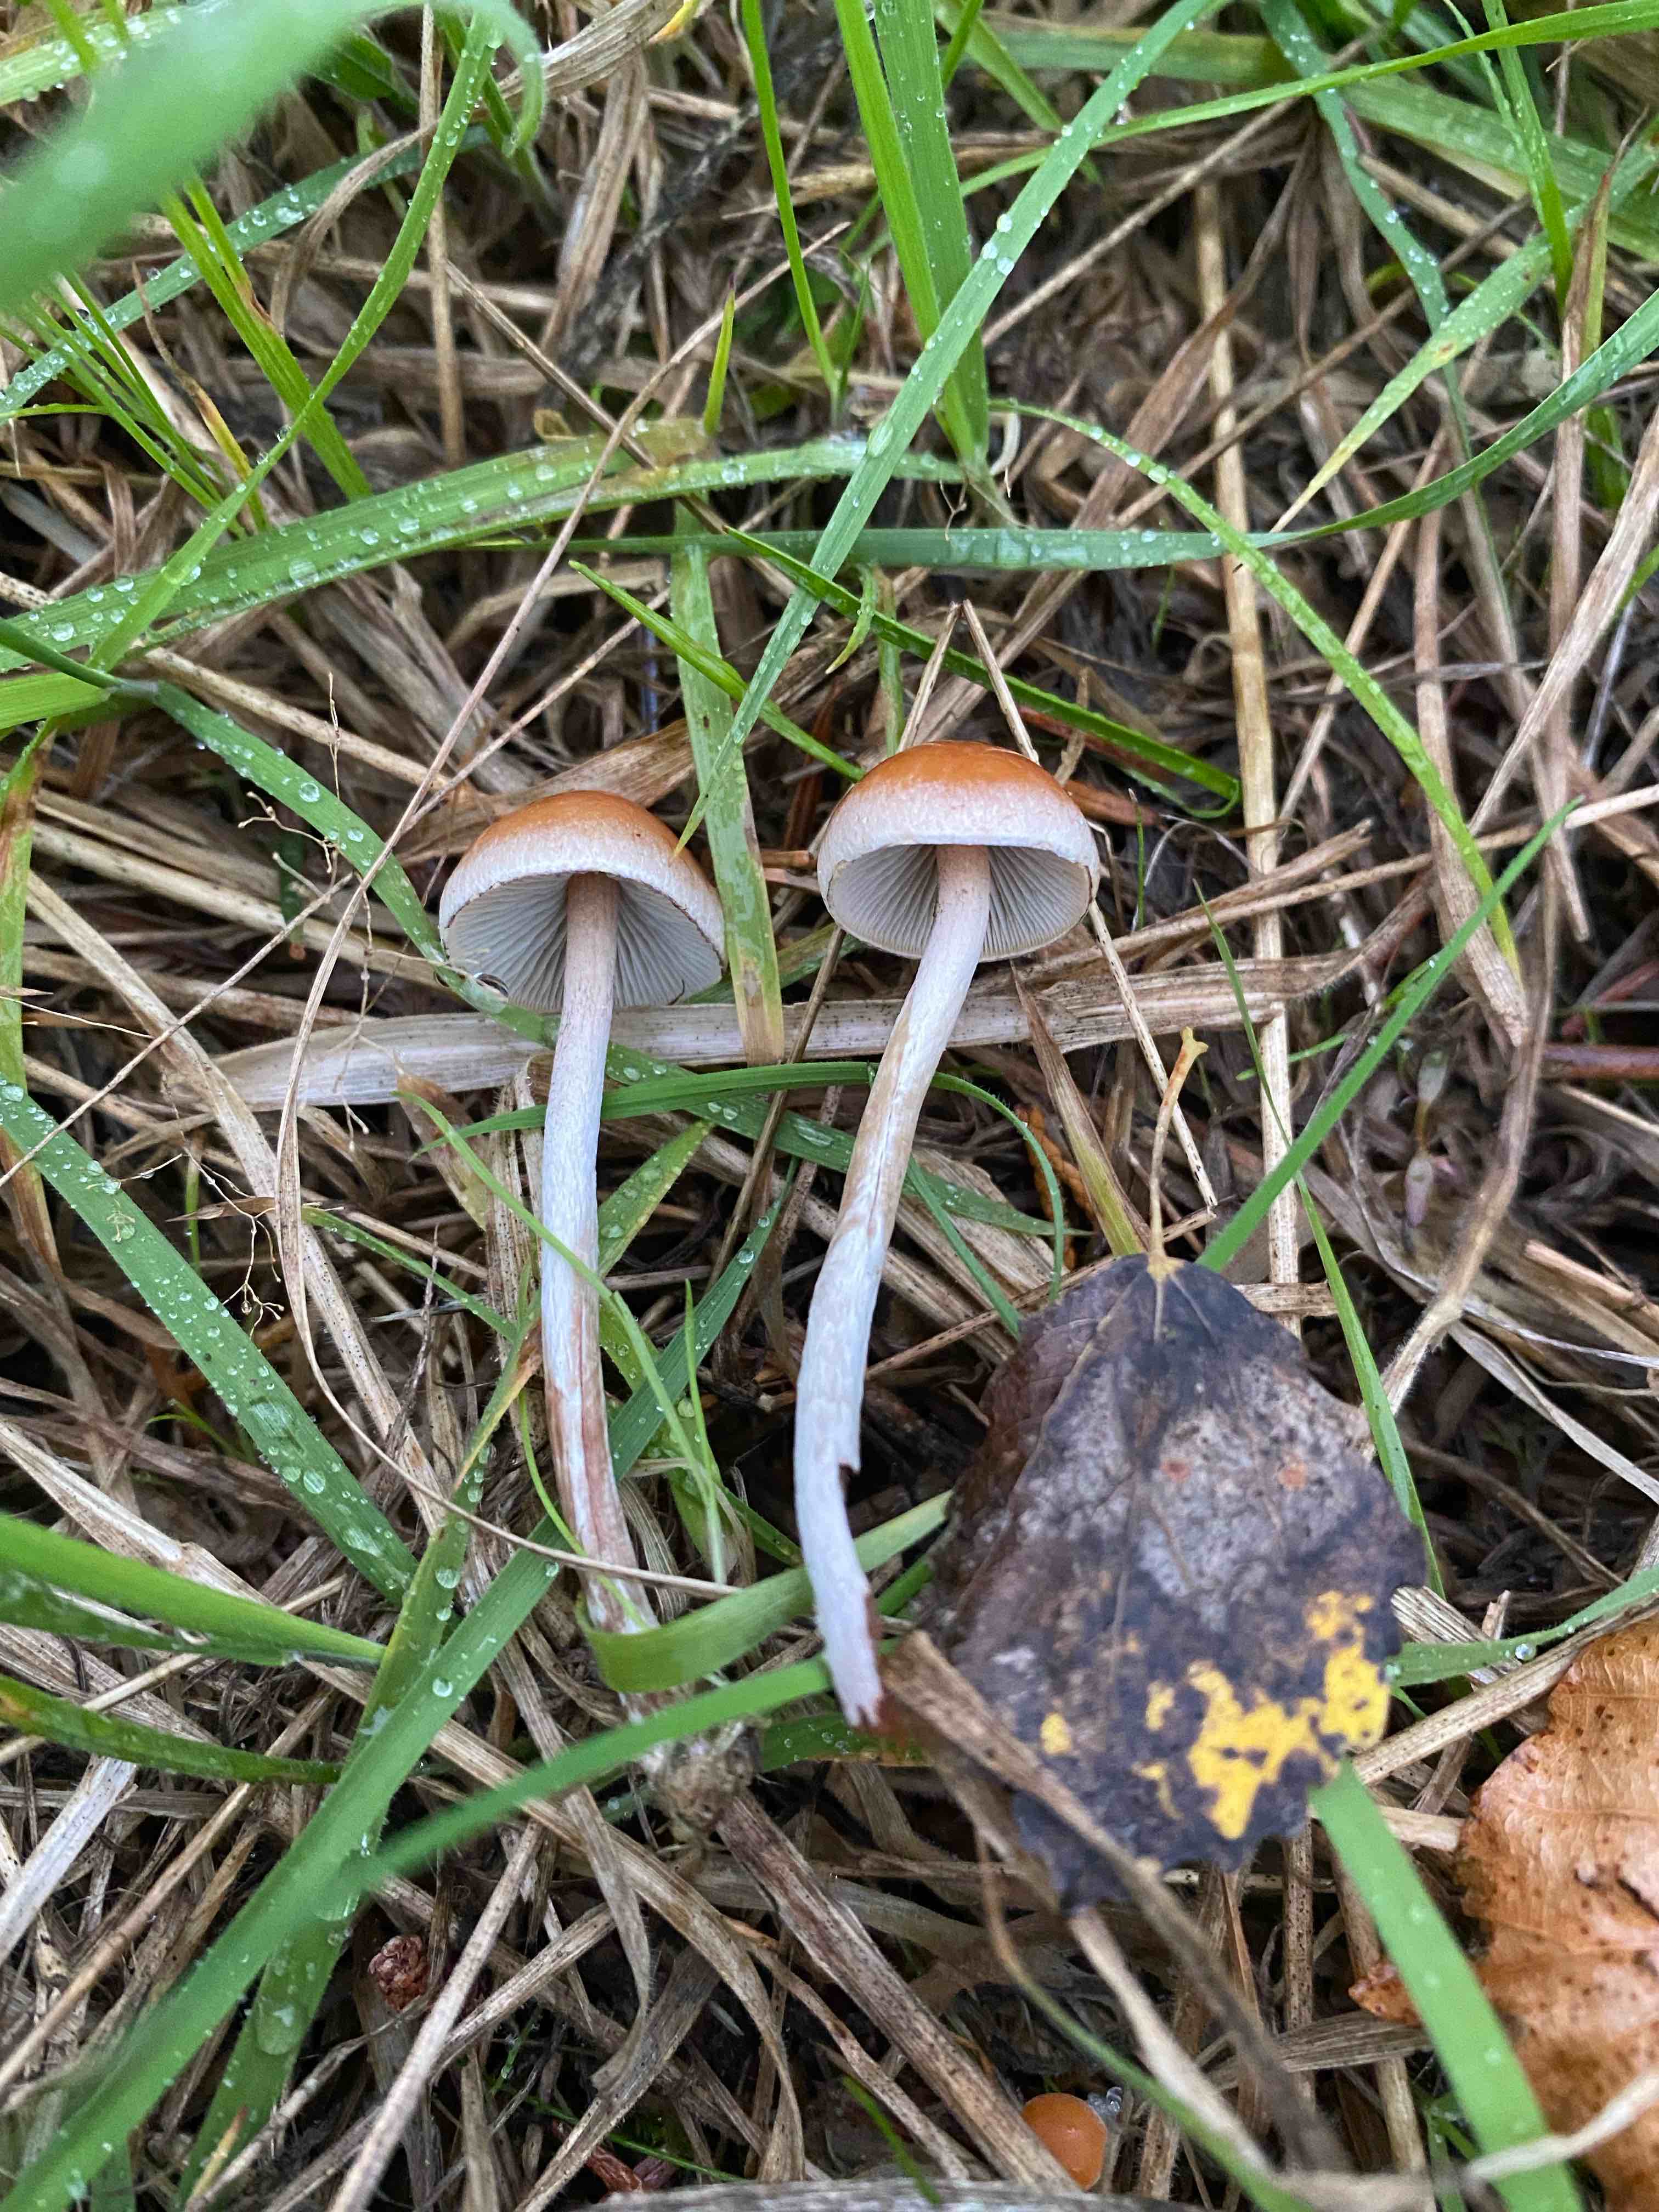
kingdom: Fungi
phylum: Basidiomycota
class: Agaricomycetes
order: Agaricales
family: Strophariaceae
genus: Hypholoma
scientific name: Hypholoma marginatum
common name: enlig svovlhat
